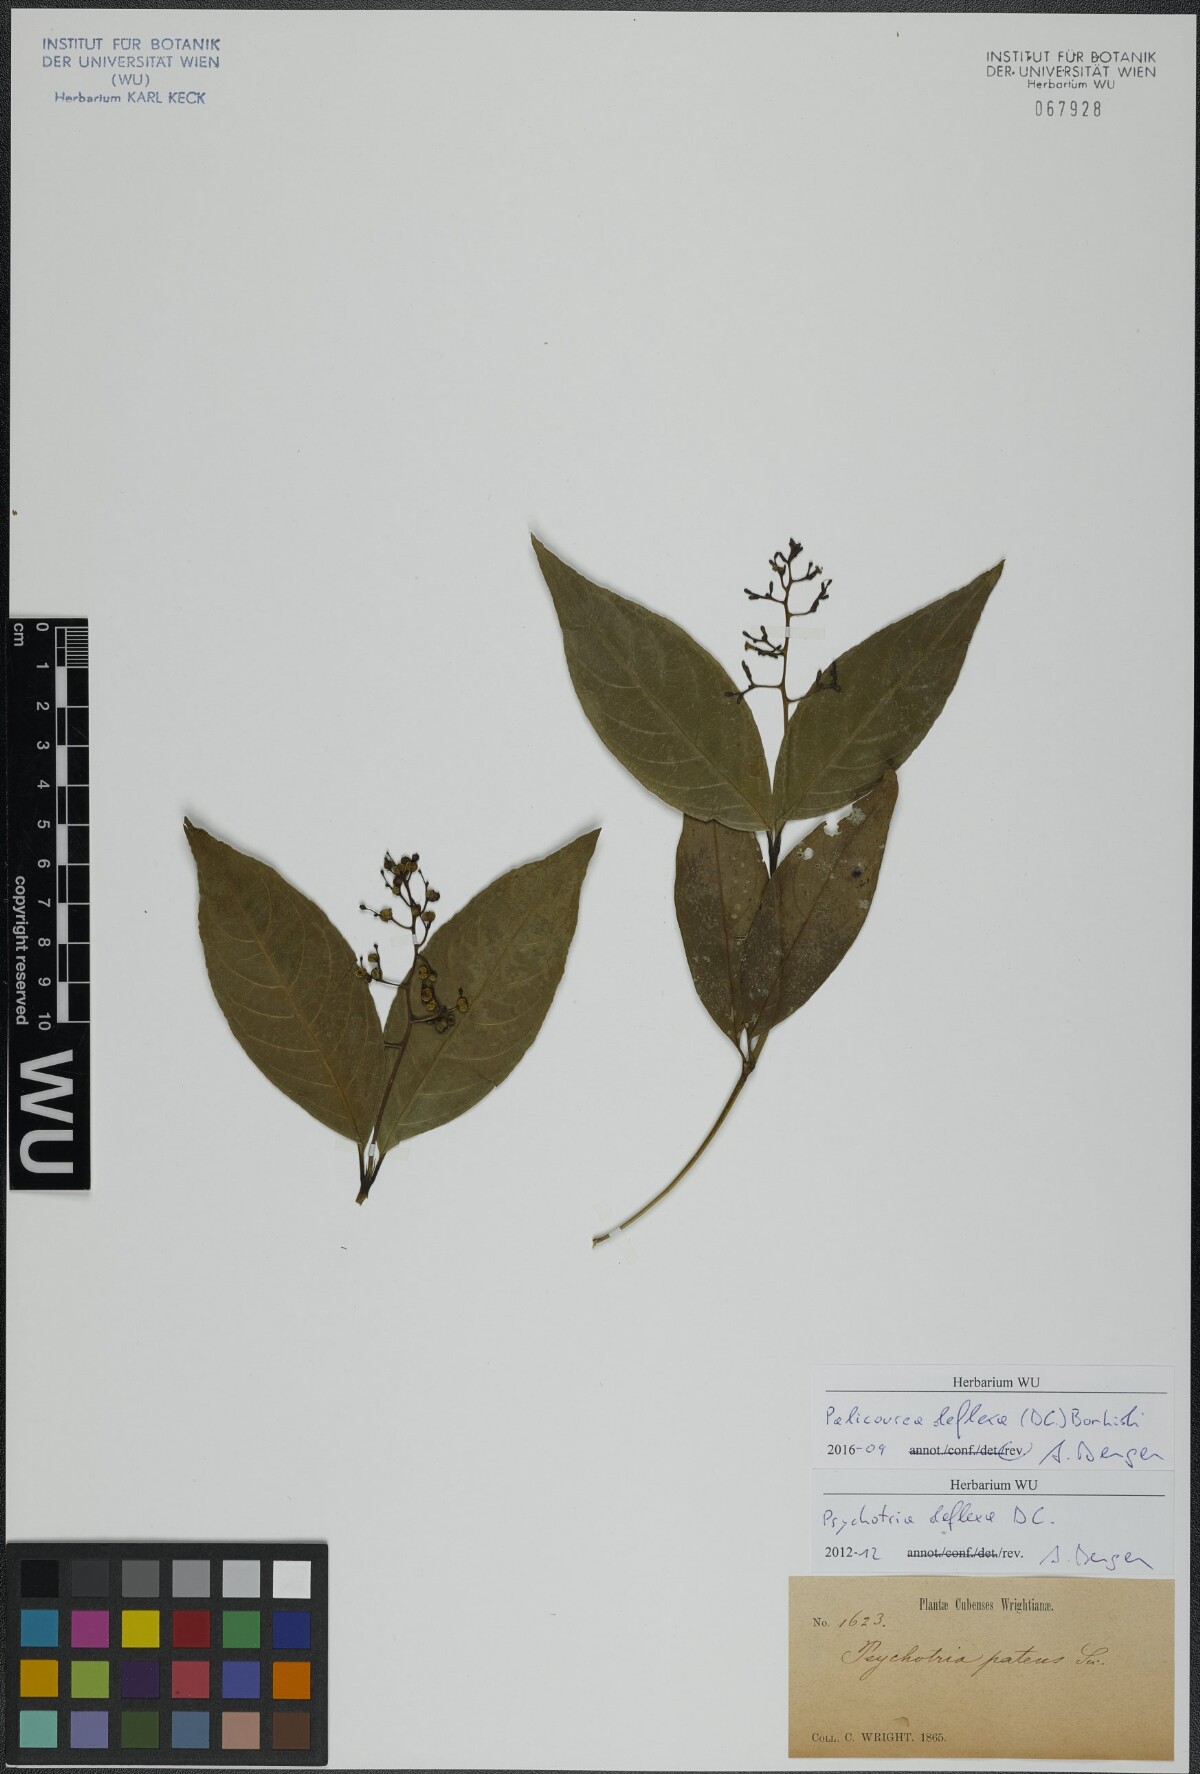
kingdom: Plantae
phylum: Tracheophyta
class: Magnoliopsida
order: Gentianales
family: Rubiaceae
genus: Palicourea
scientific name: Palicourea deflexa
